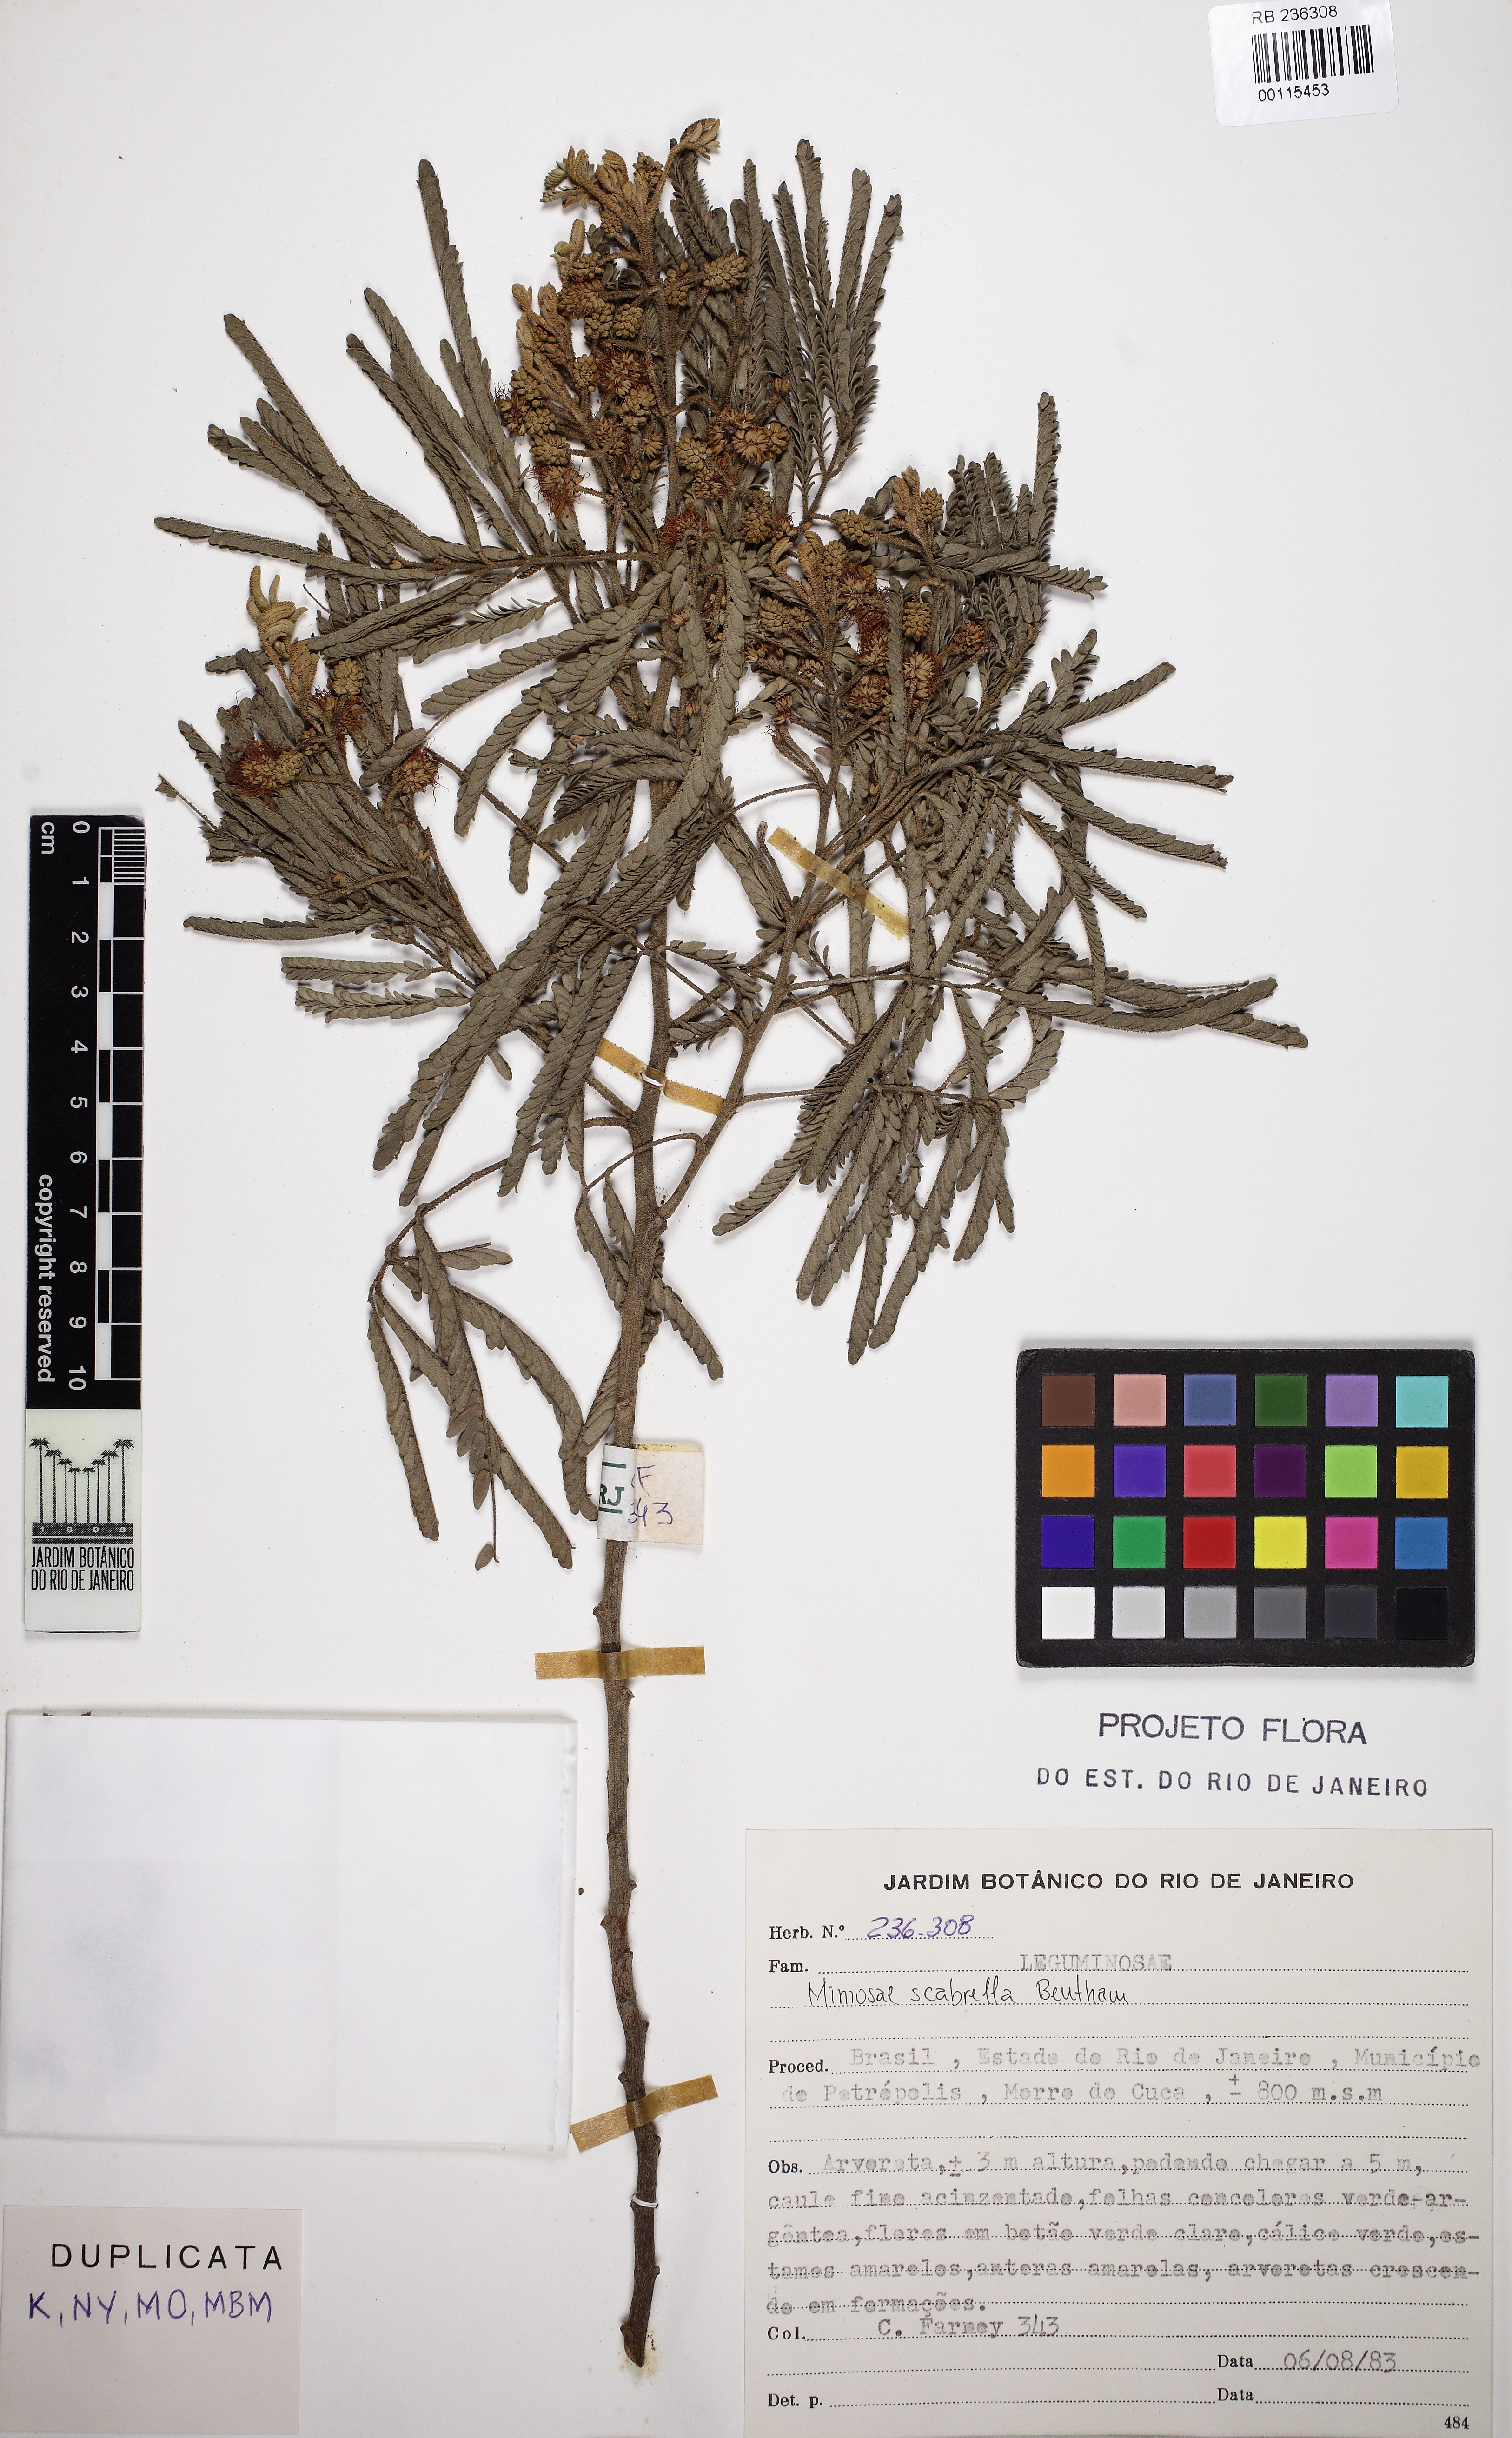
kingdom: Plantae
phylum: Tracheophyta
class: Magnoliopsida
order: Fabales
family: Fabaceae
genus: Mimosa
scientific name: Mimosa scabrella
